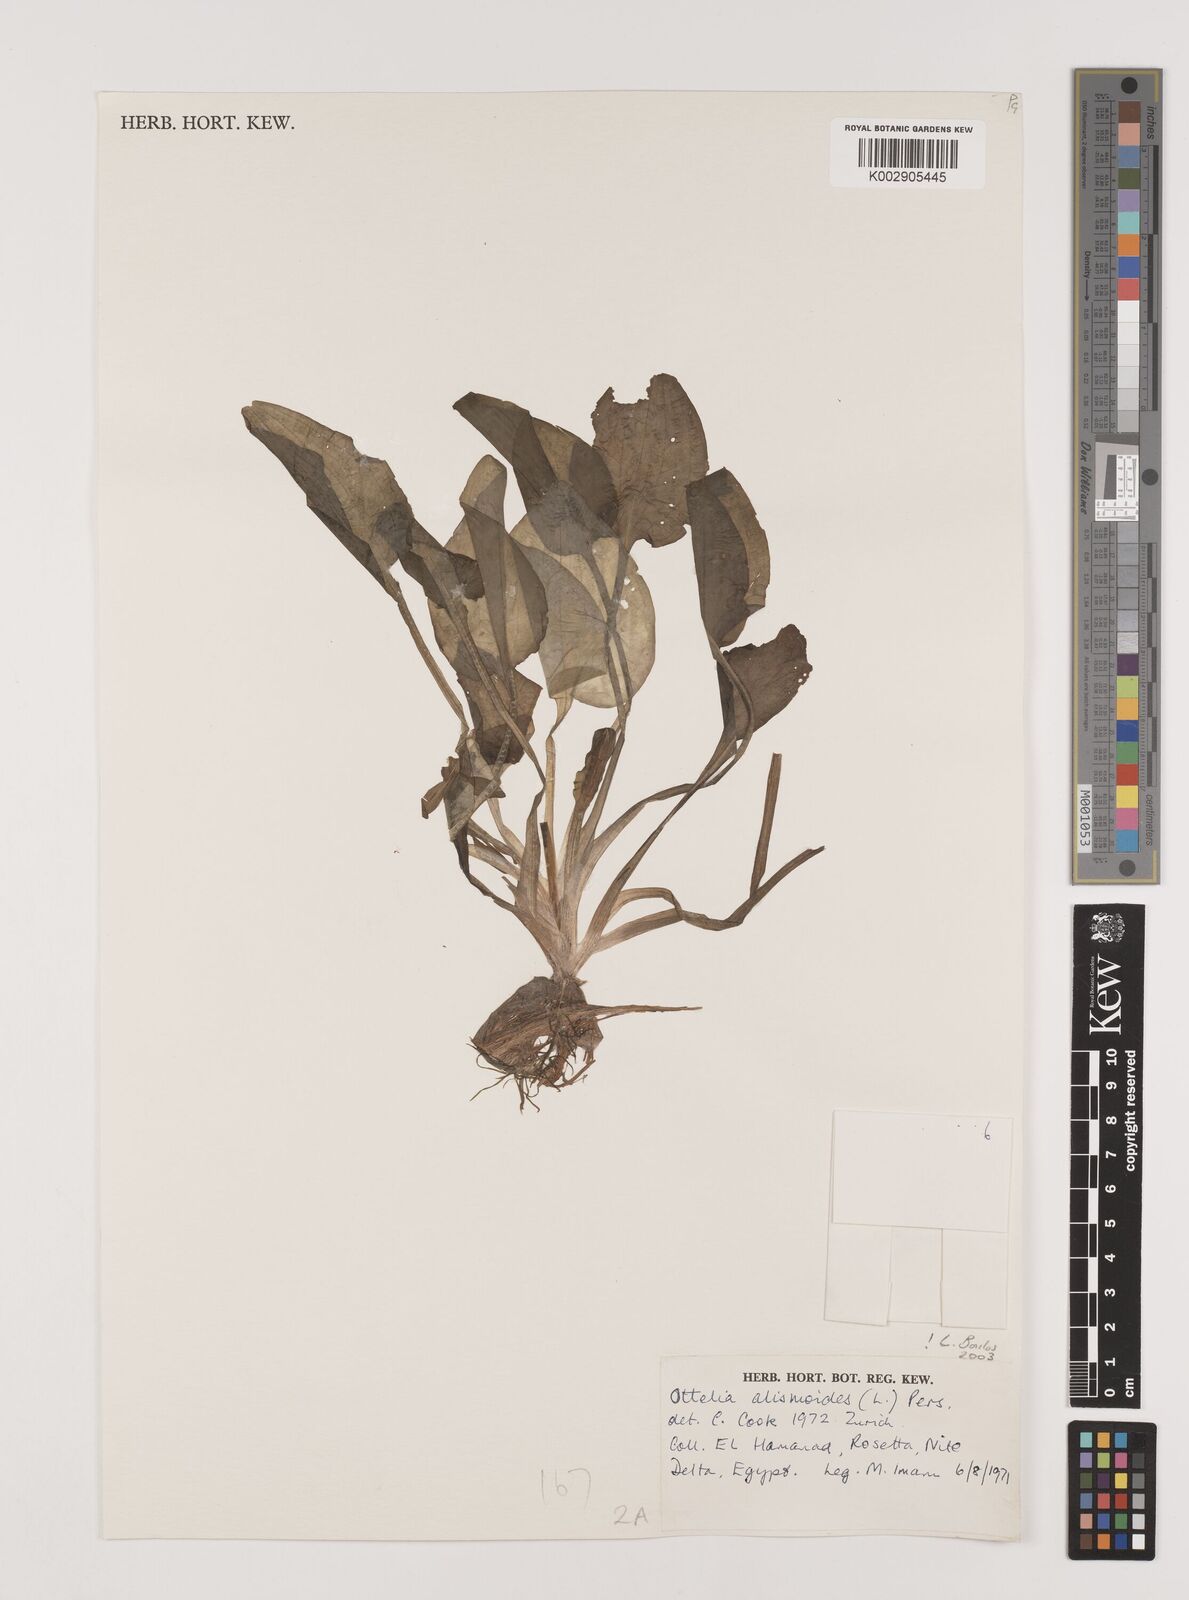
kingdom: Plantae
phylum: Tracheophyta
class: Liliopsida
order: Alismatales
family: Hydrocharitaceae
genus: Ottelia
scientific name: Ottelia alismoides
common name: Duck-lettuce
